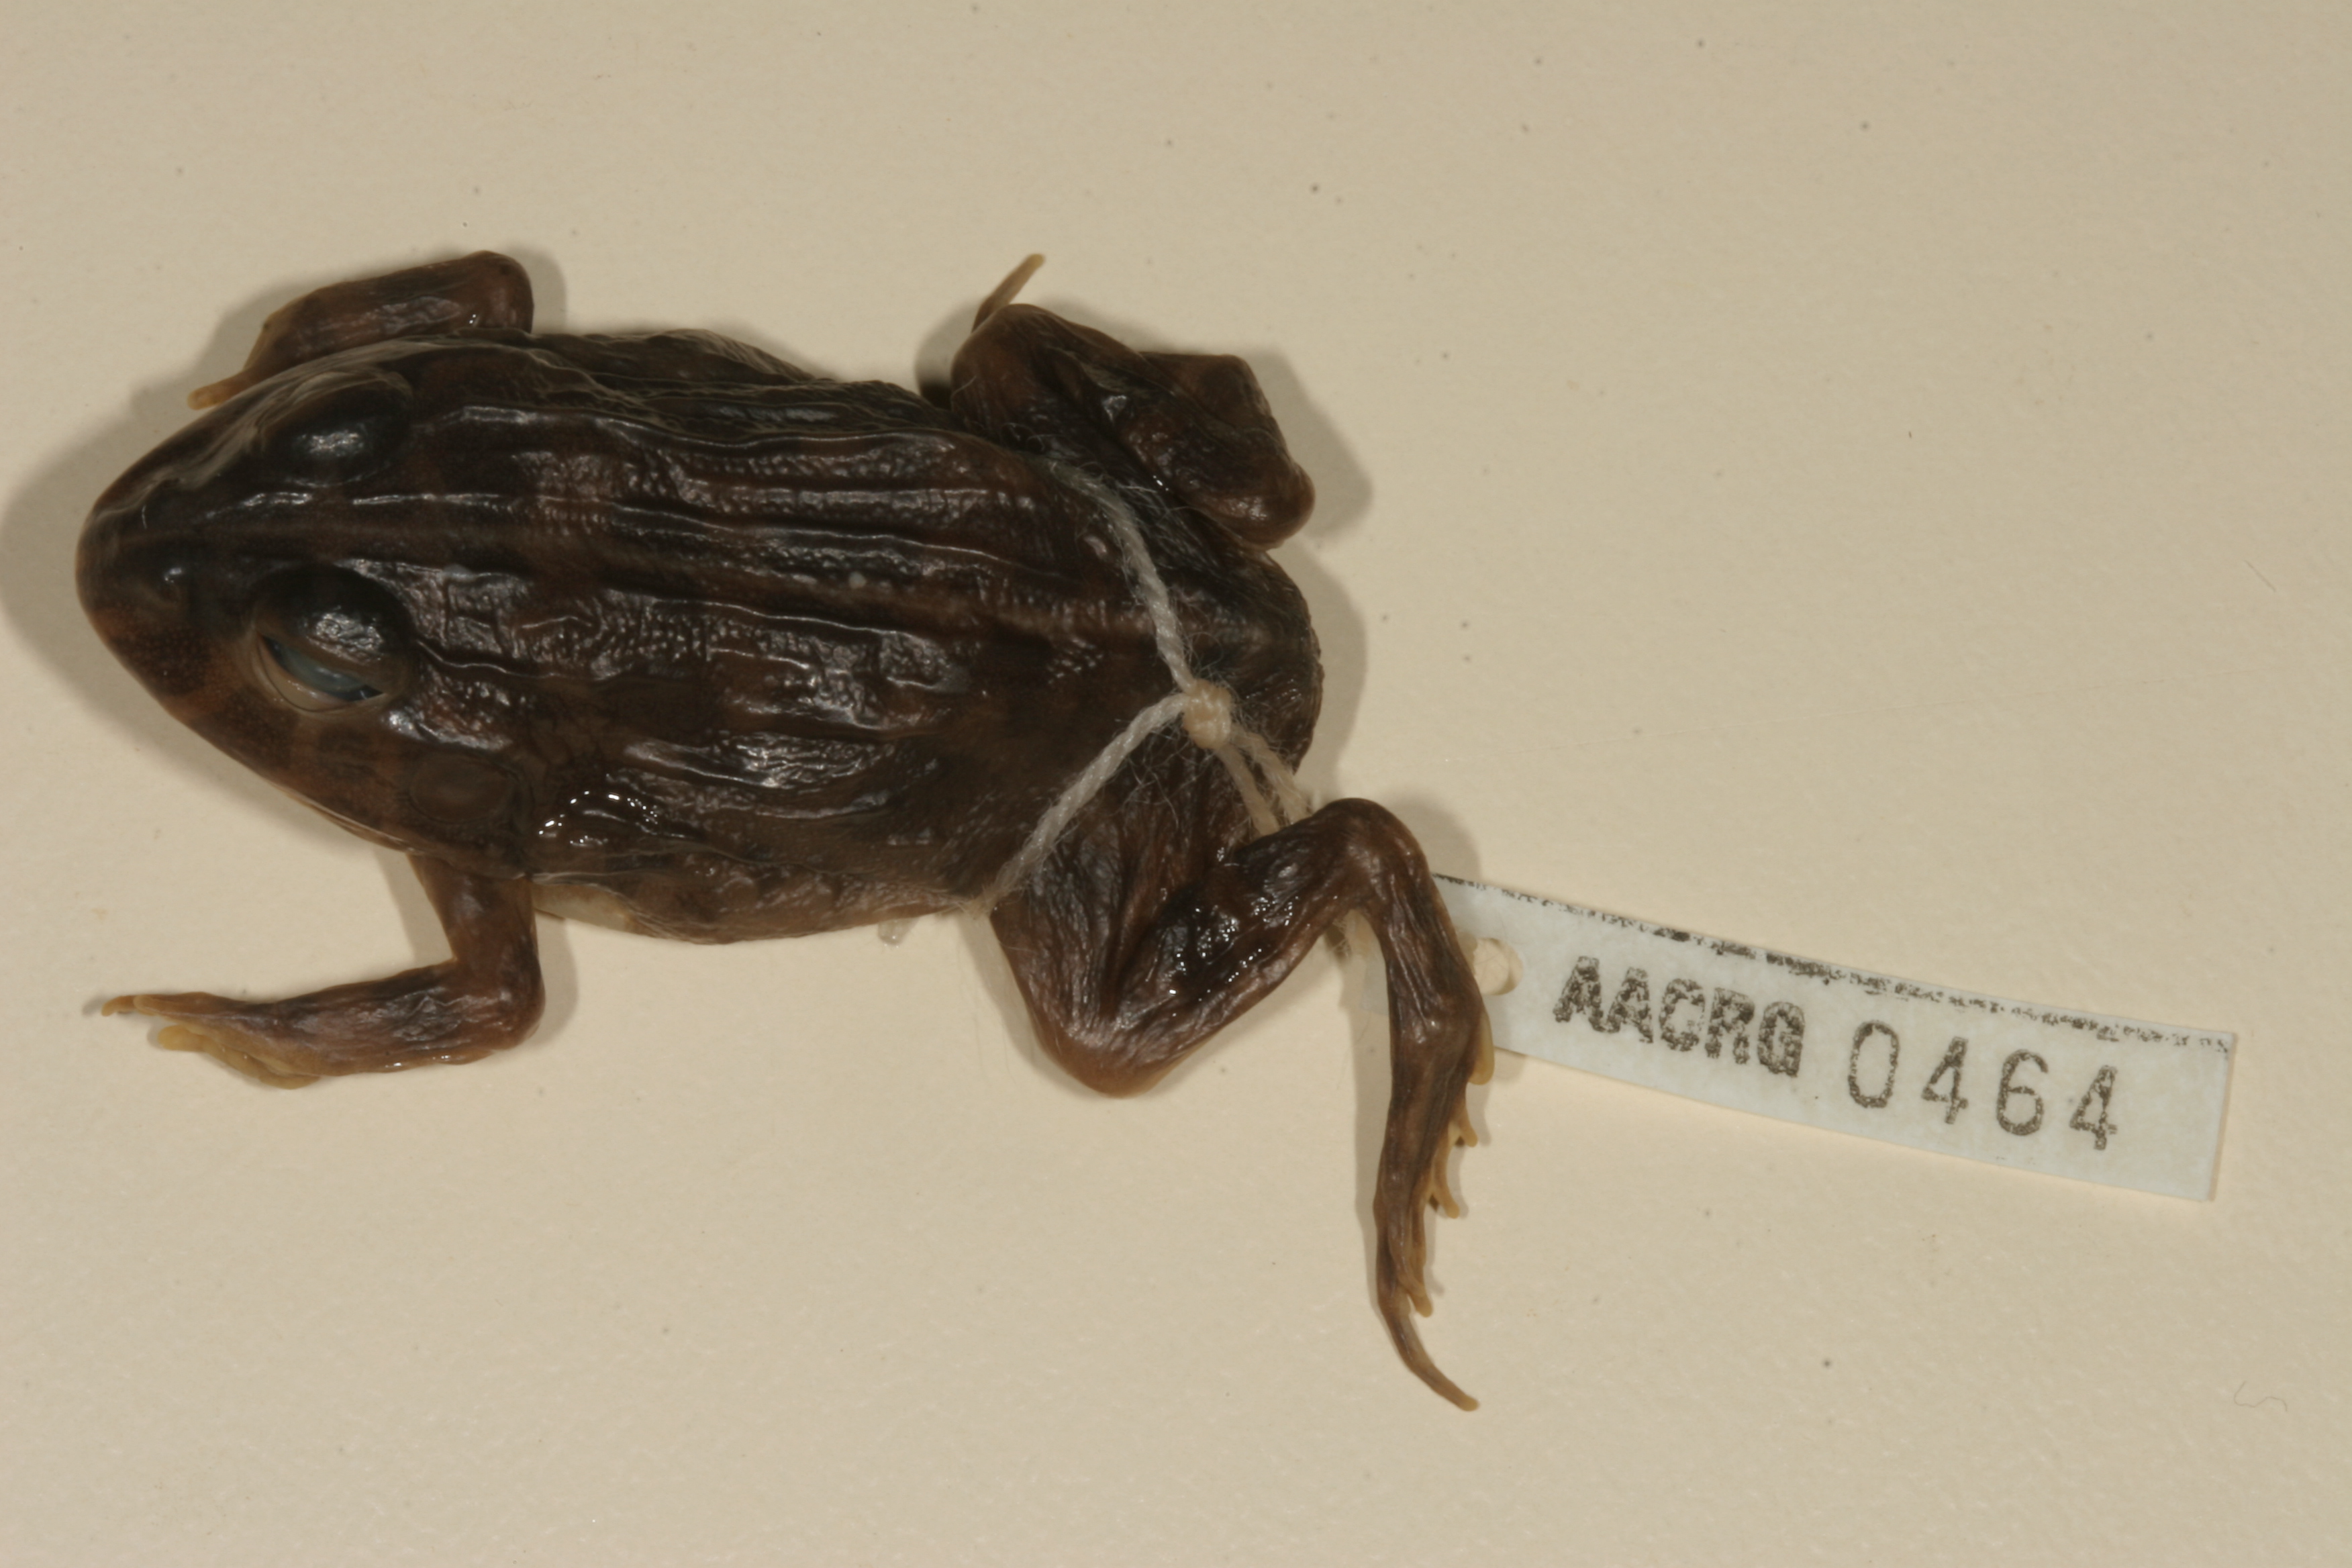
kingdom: Animalia
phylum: Chordata
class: Amphibia
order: Anura
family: Pyxicephalidae
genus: Pyxicephalus
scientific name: Pyxicephalus edulis
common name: Peter's bullfrog
